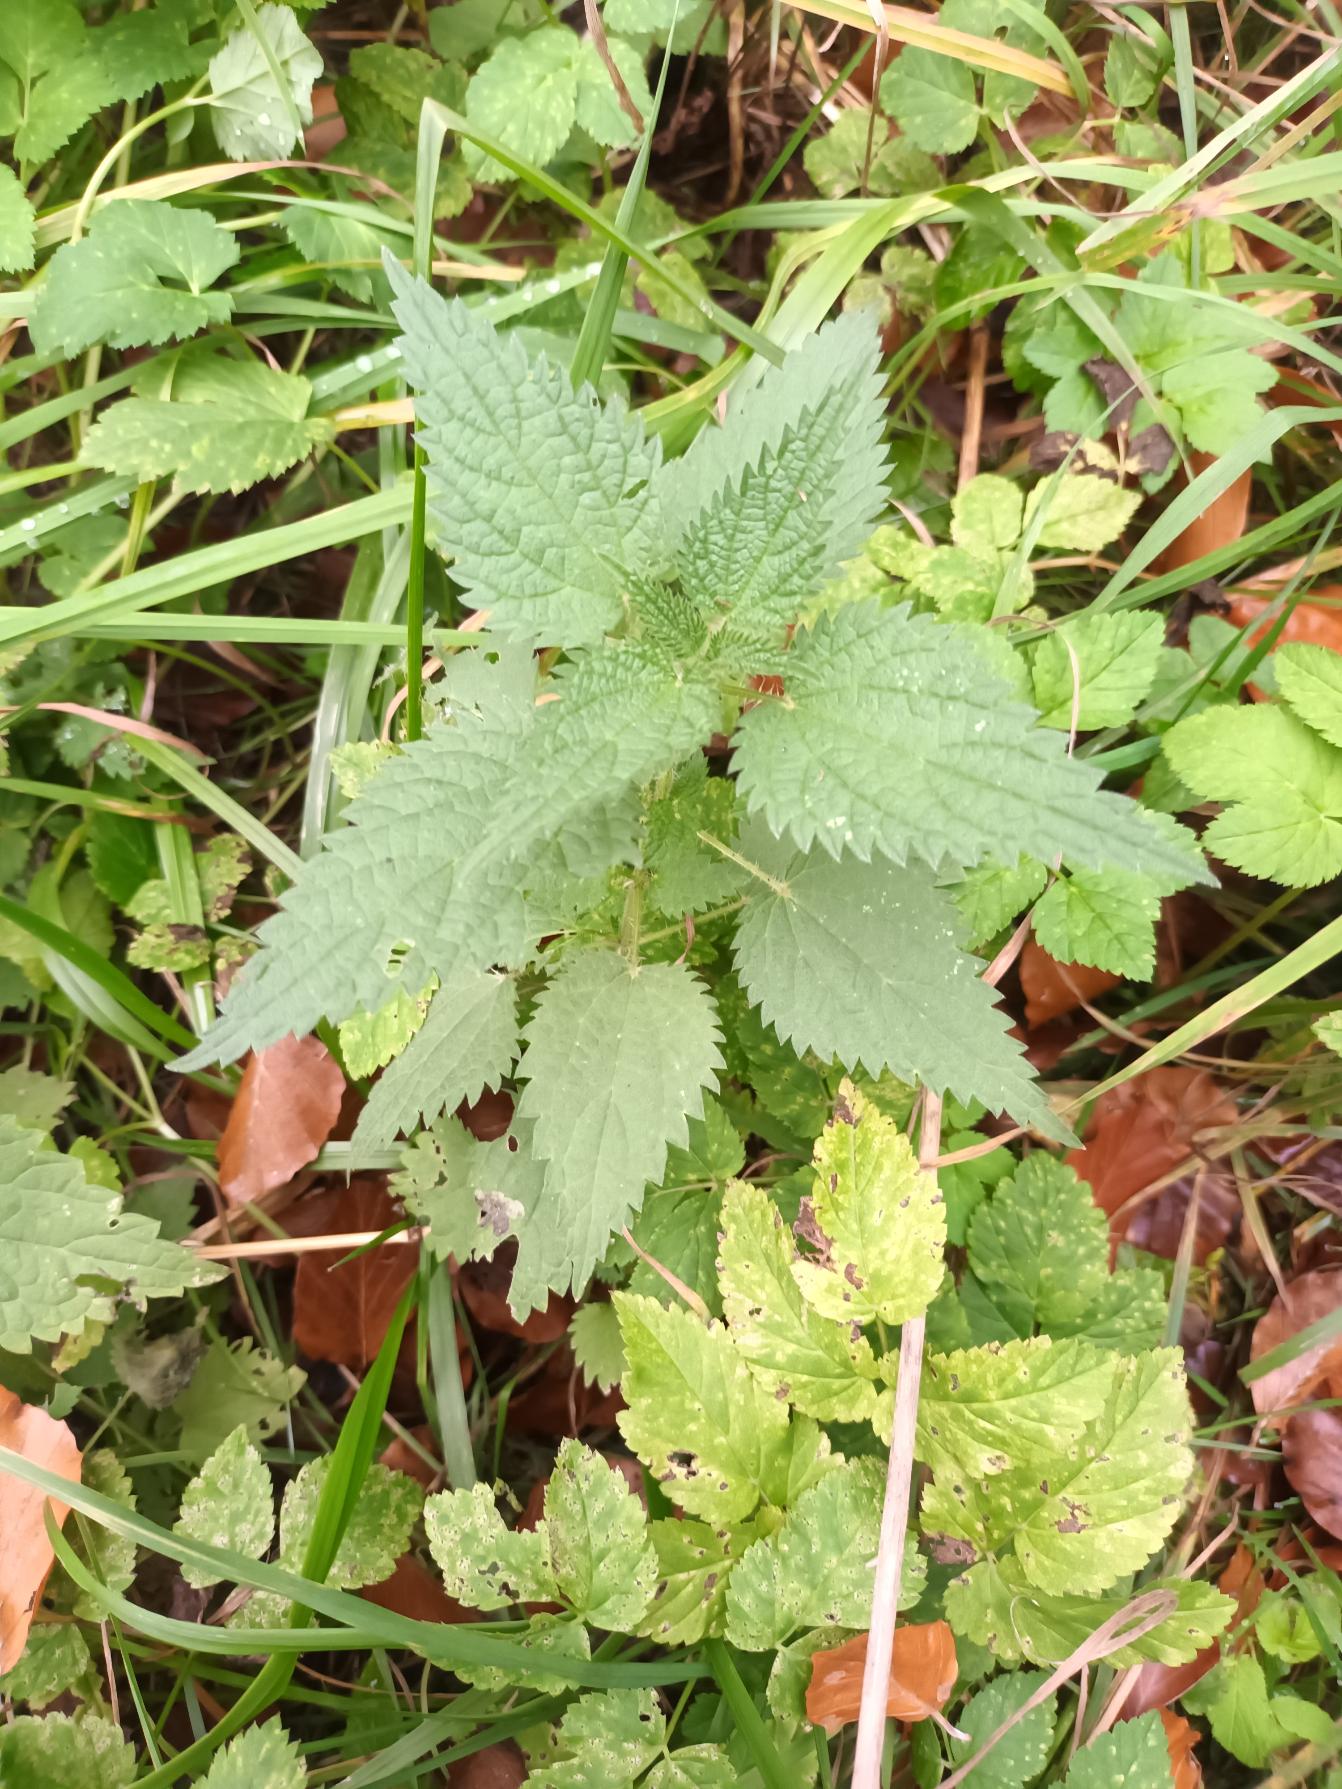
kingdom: Plantae
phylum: Tracheophyta
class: Magnoliopsida
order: Rosales
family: Urticaceae
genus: Urtica
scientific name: Urtica dioica
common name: Stor nælde
